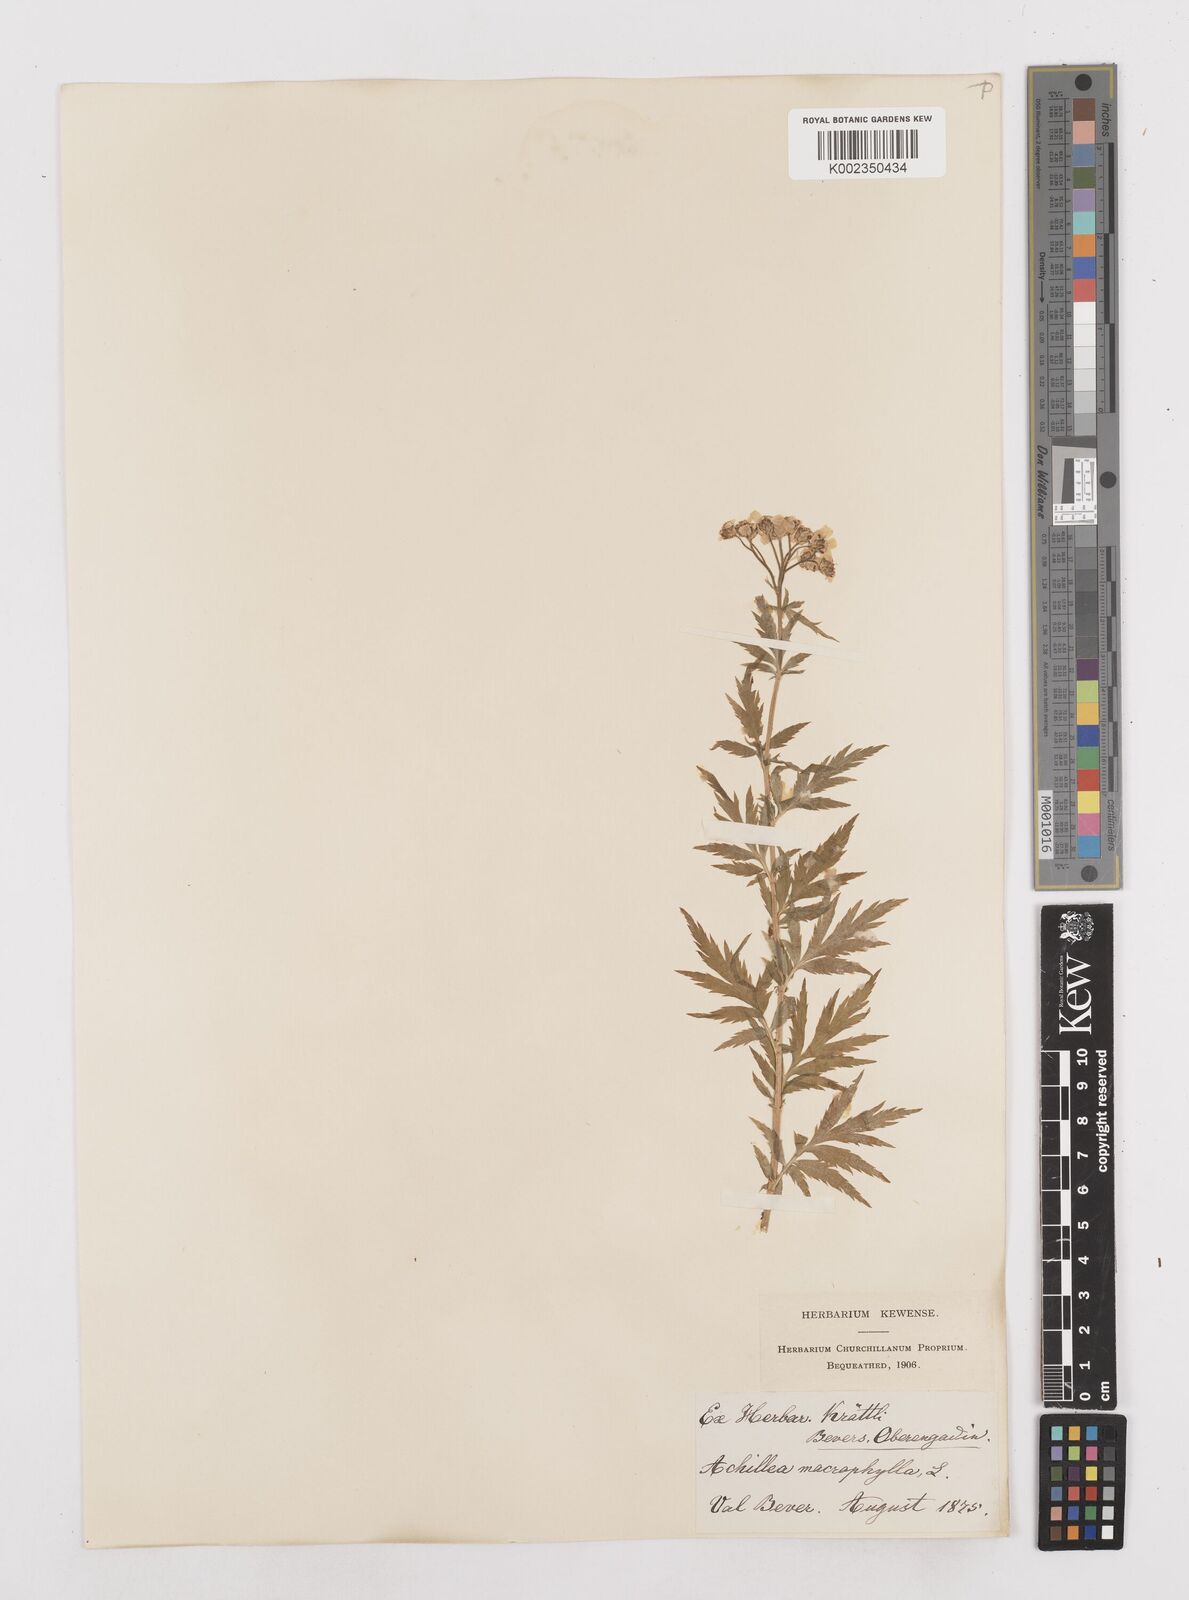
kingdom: Plantae
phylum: Tracheophyta
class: Magnoliopsida
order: Asterales
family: Asteraceae
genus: Achillea
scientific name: Achillea macrophylla
